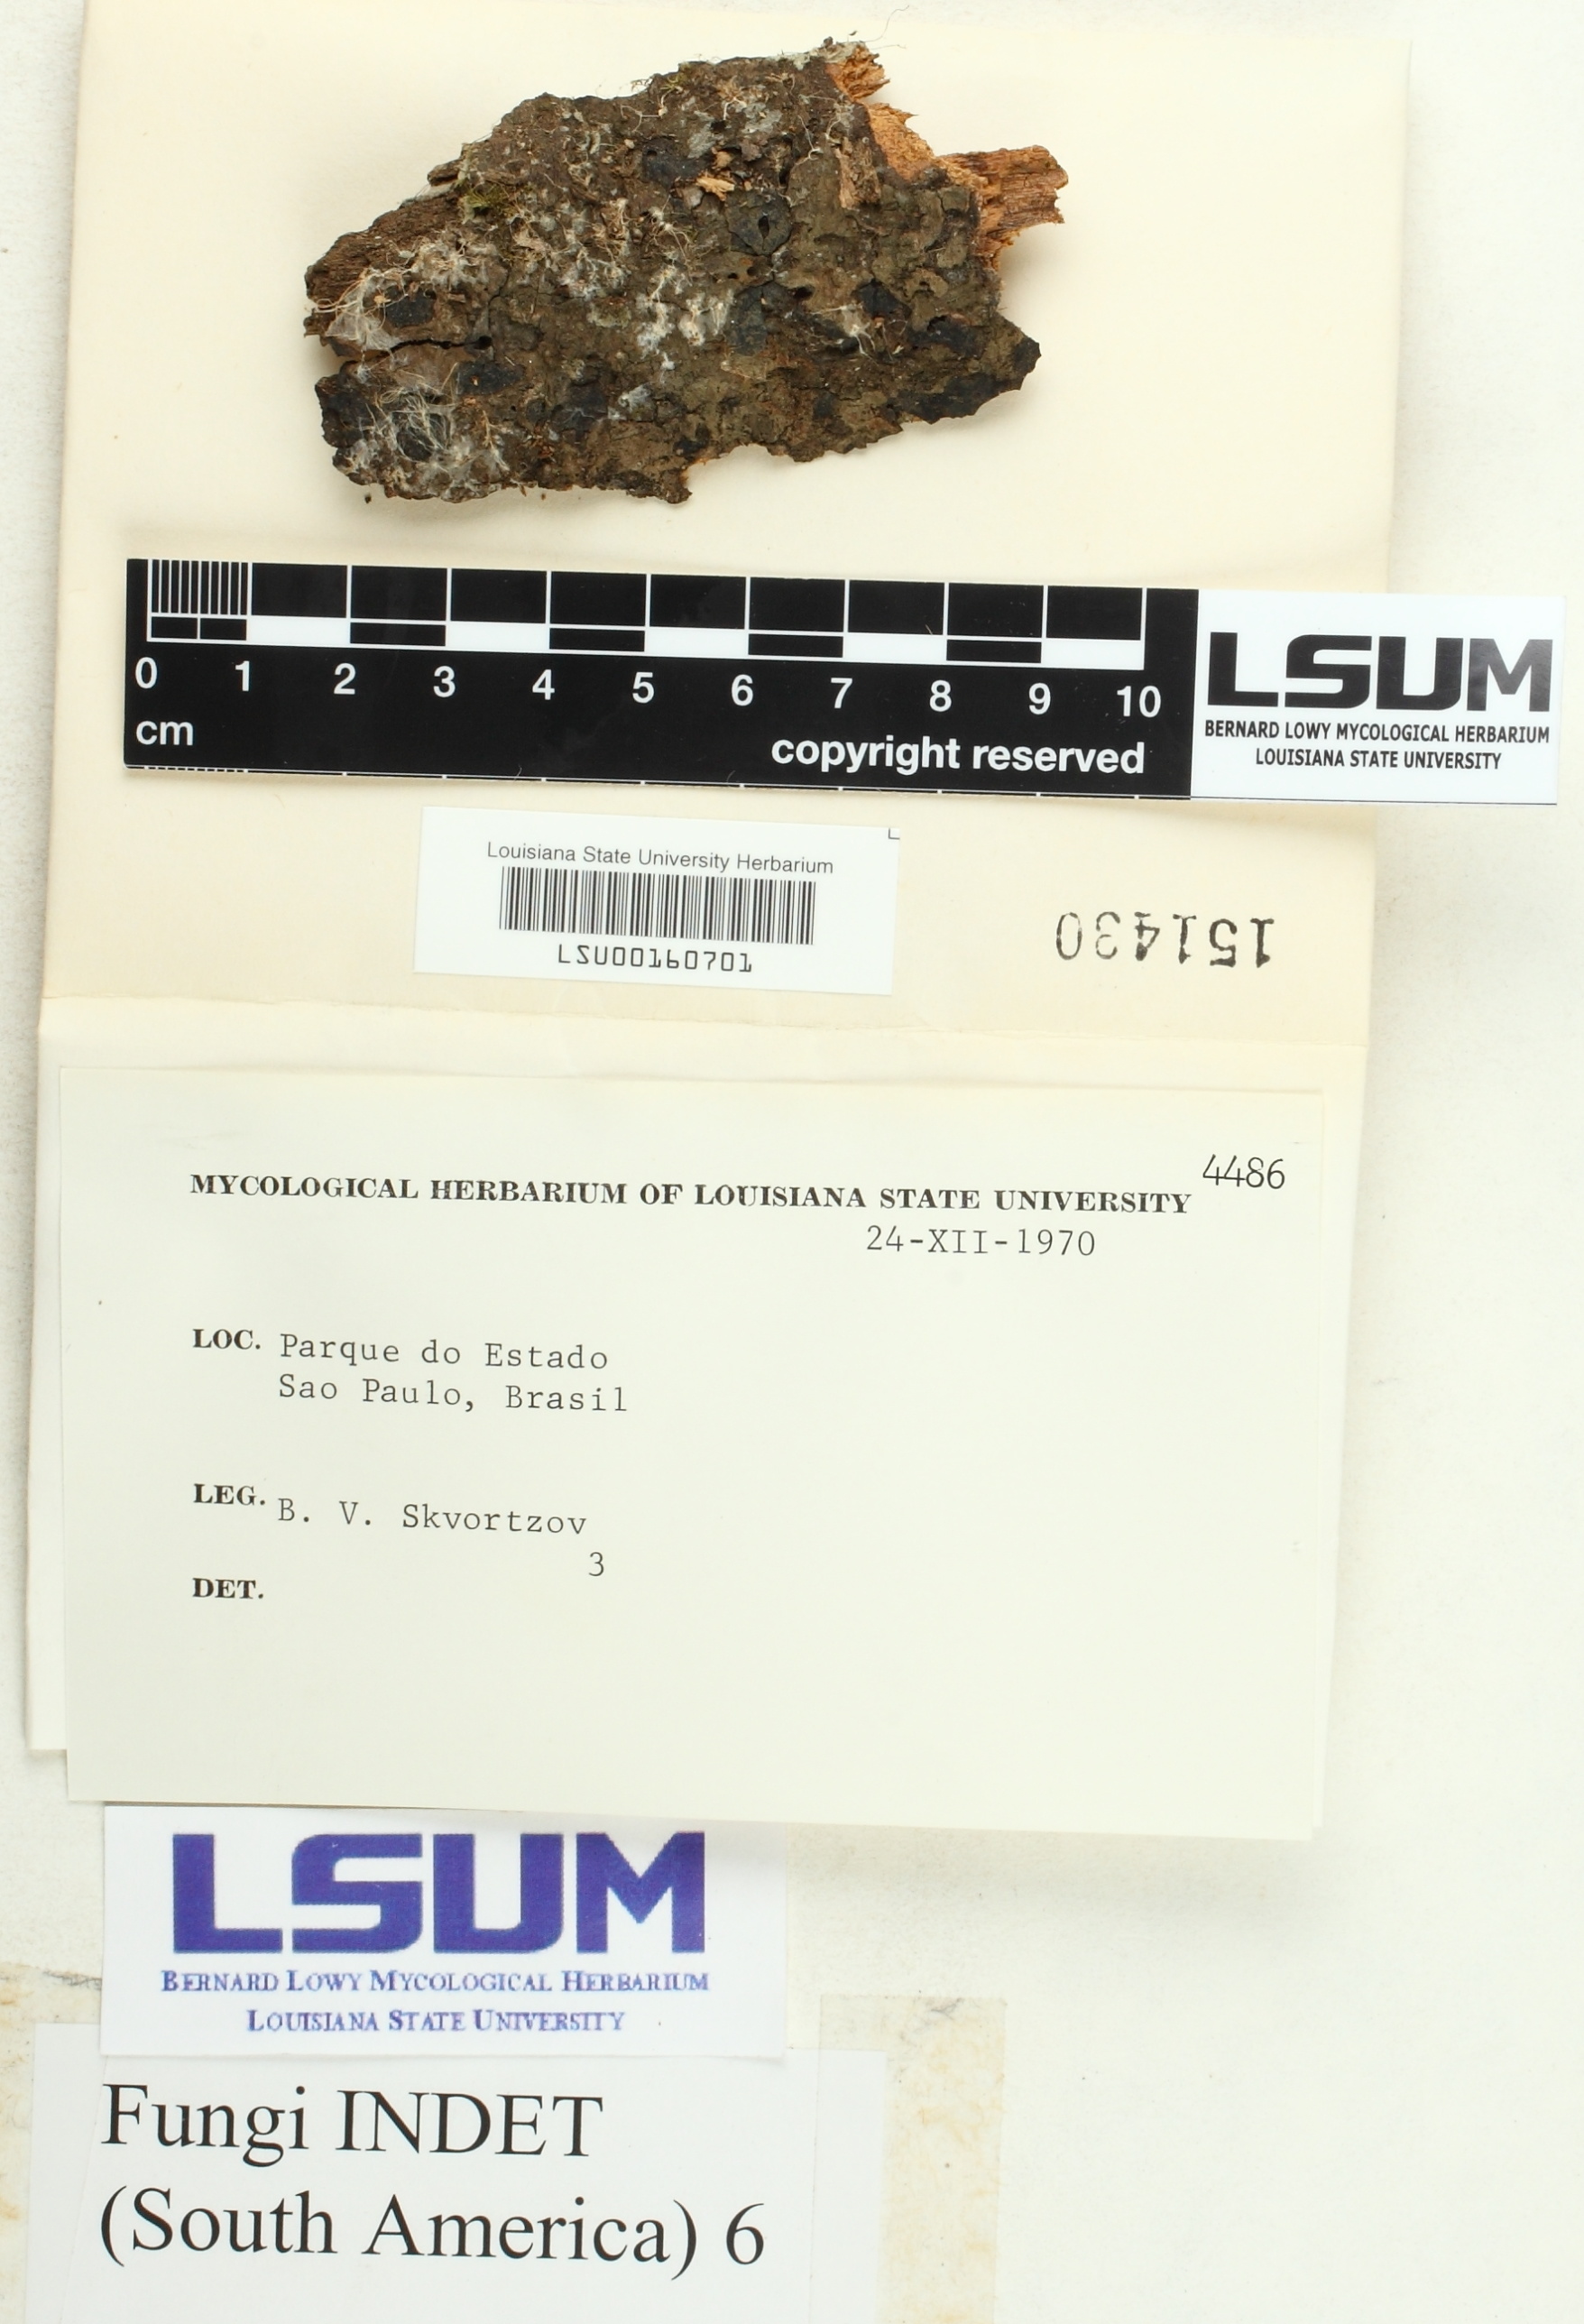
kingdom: Fungi
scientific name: Fungi
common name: Fungi
